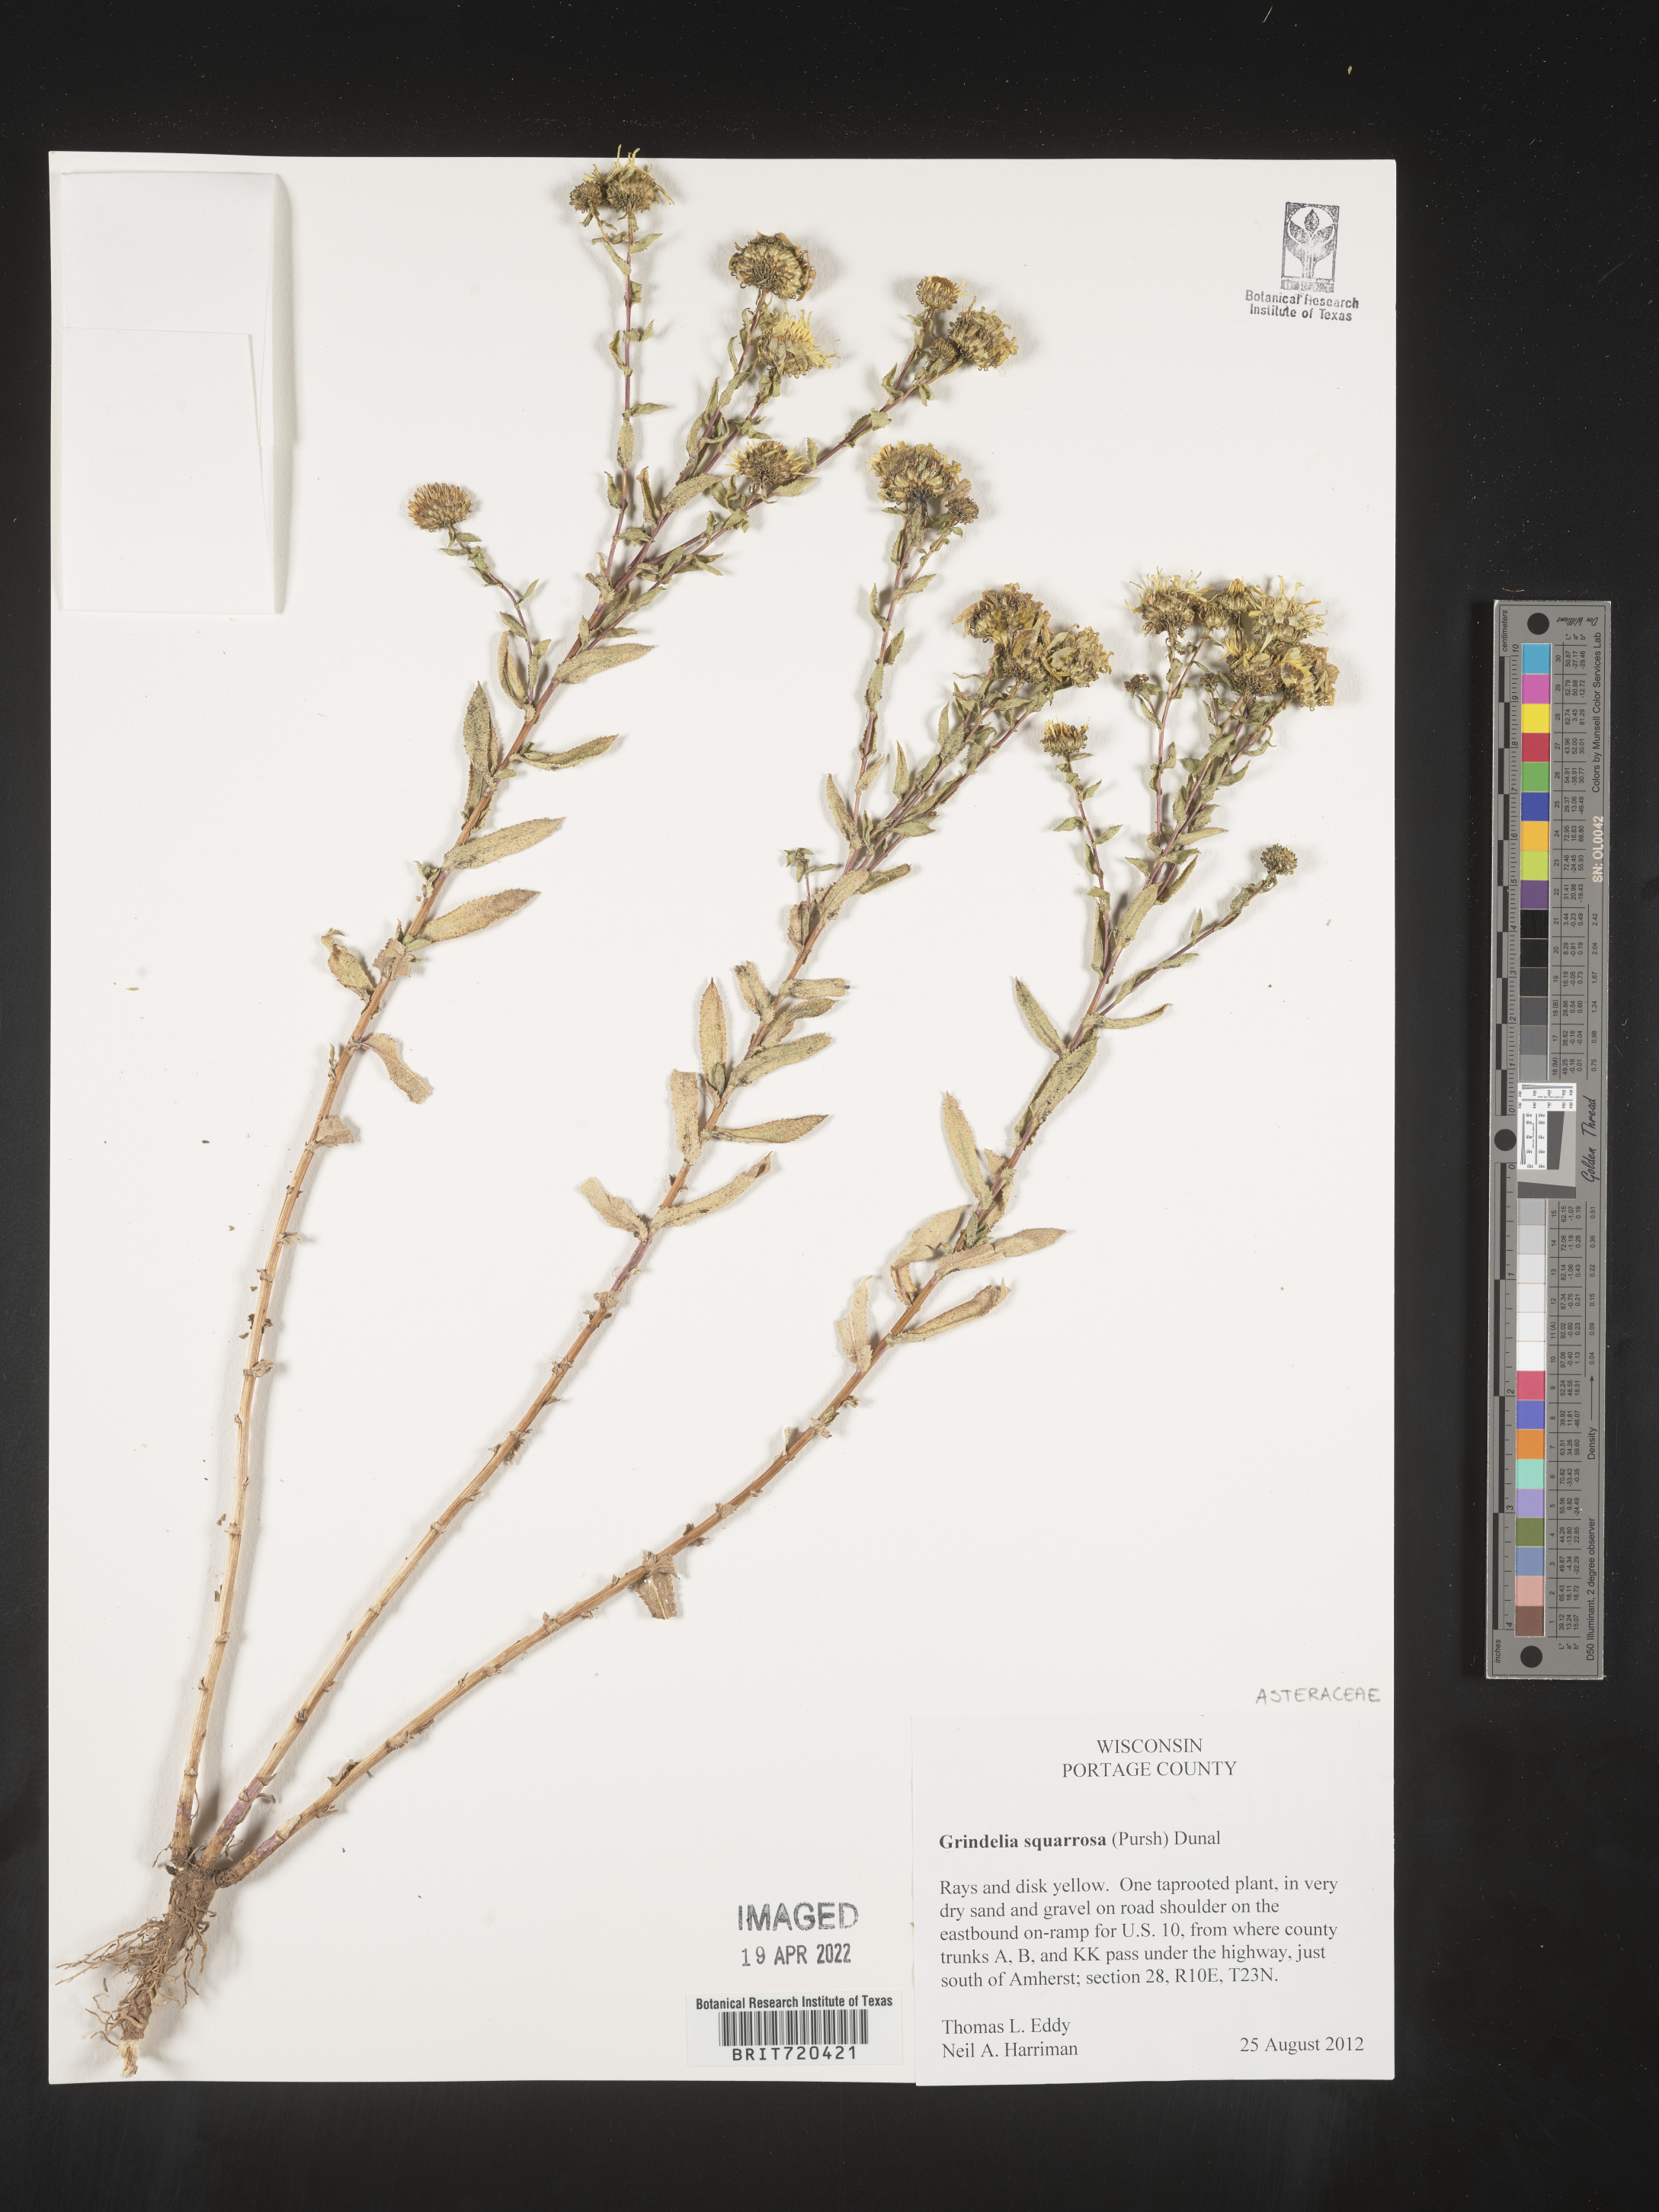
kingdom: Plantae
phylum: Tracheophyta
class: Magnoliopsida
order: Asterales
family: Asteraceae
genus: Grindelia
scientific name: Grindelia squarrosa
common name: Curly-cup gumweed
